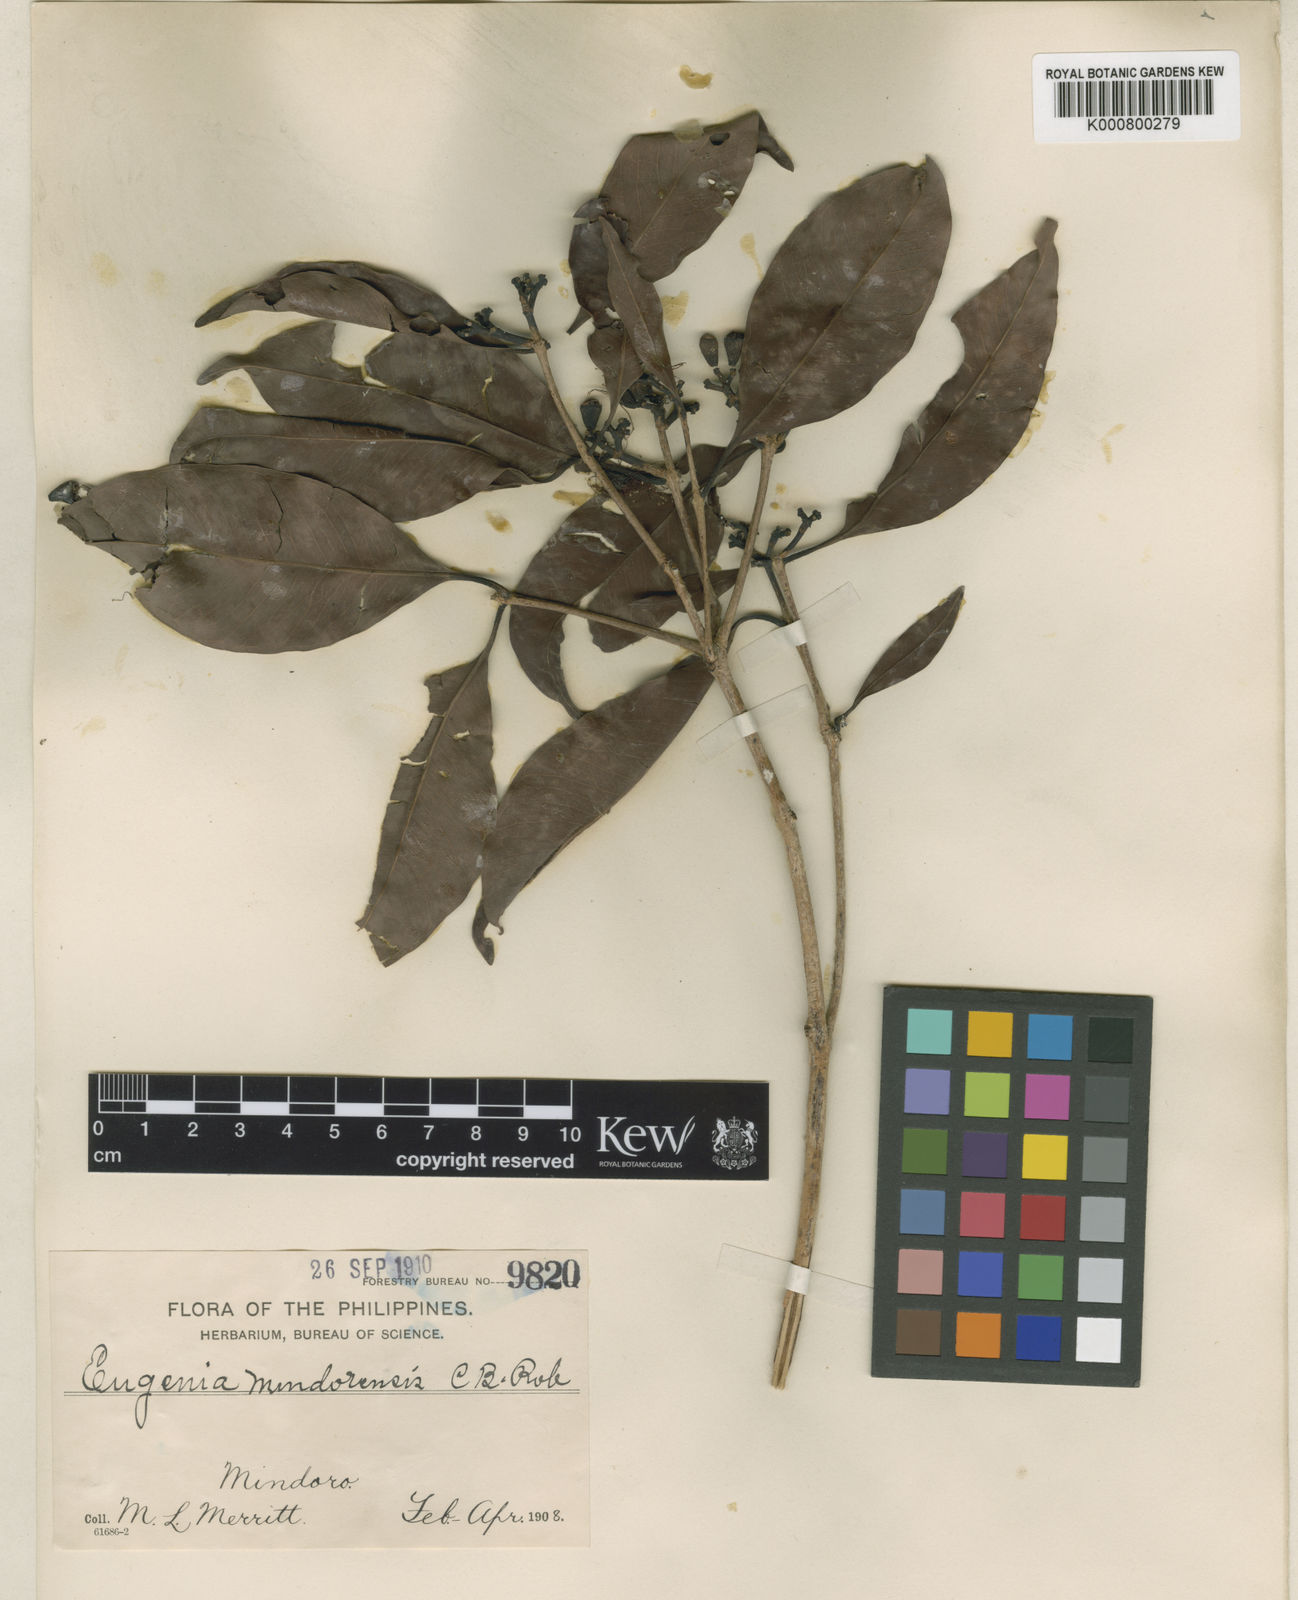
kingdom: Plantae
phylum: Tracheophyta
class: Magnoliopsida
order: Myrtales
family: Myrtaceae
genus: Syzygium
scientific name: Syzygium mindorense
